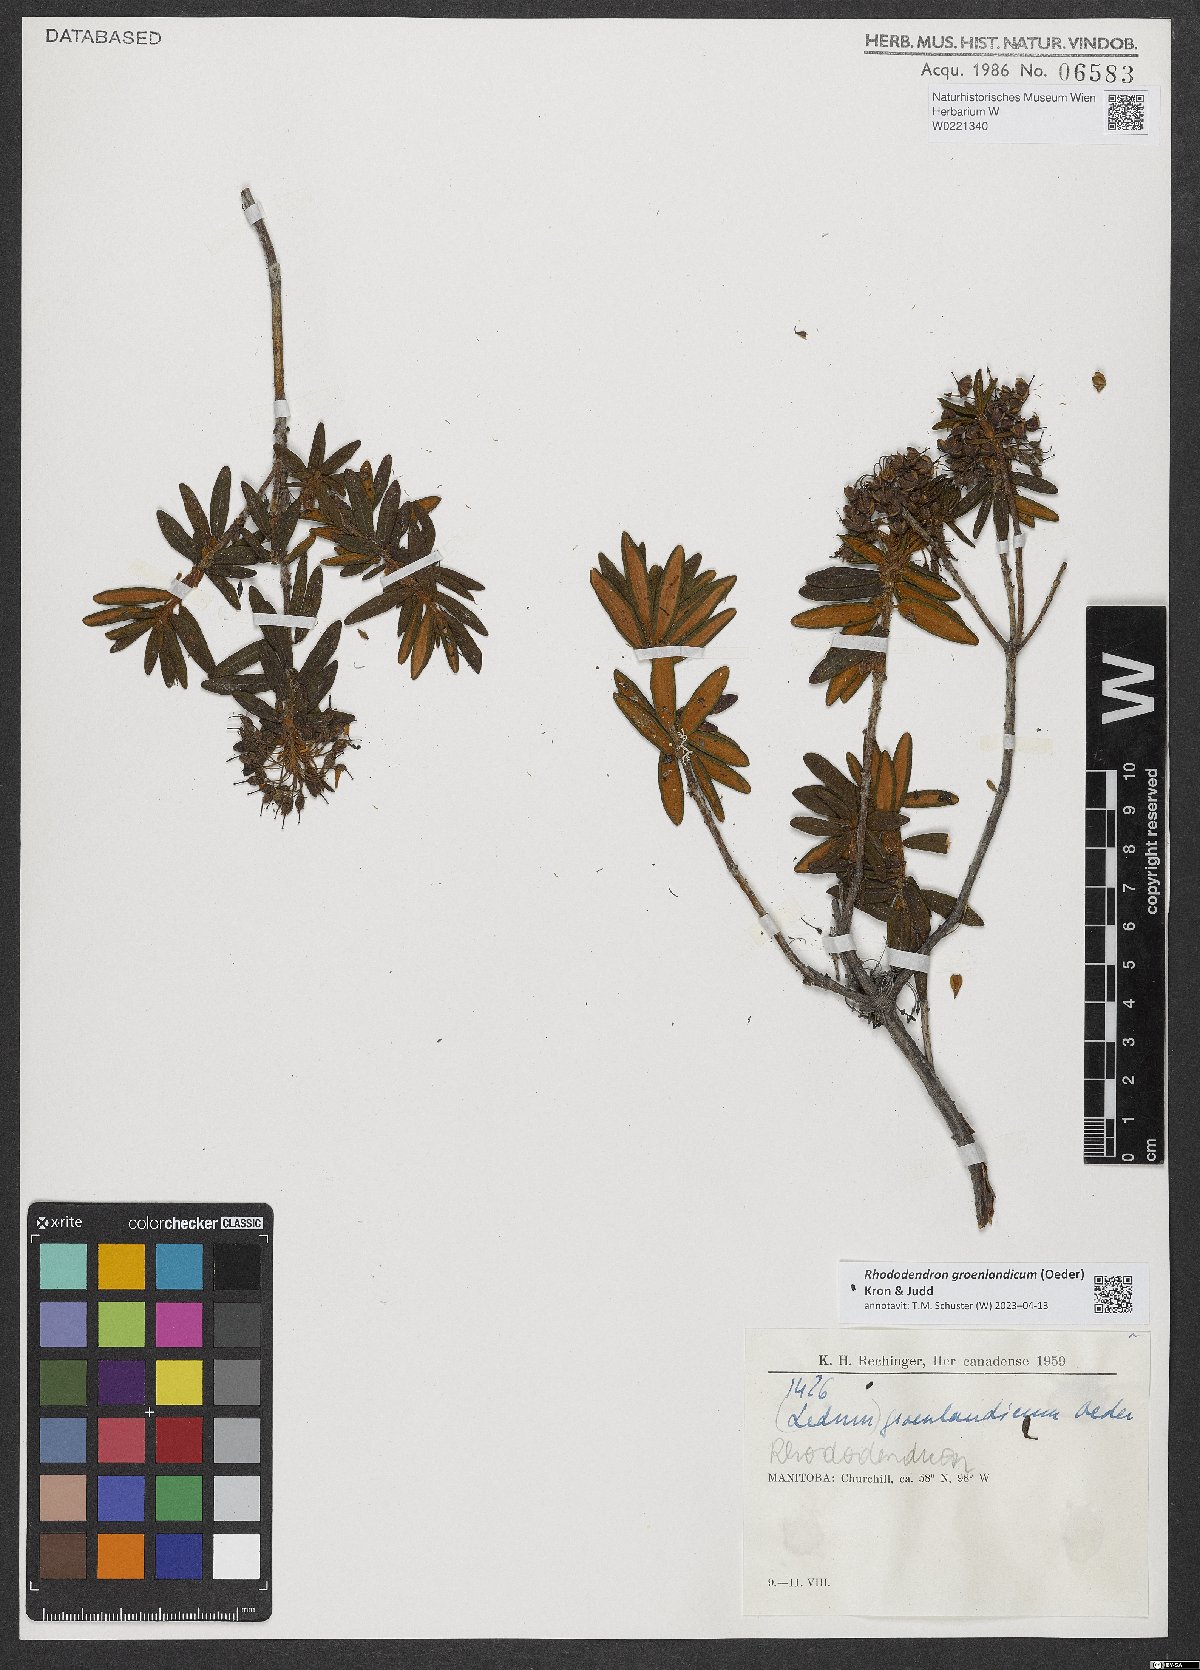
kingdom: Plantae
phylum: Tracheophyta
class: Magnoliopsida
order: Ericales
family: Ericaceae
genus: Rhododendron
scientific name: Rhododendron groenlandicum
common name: Bog labrador tea
